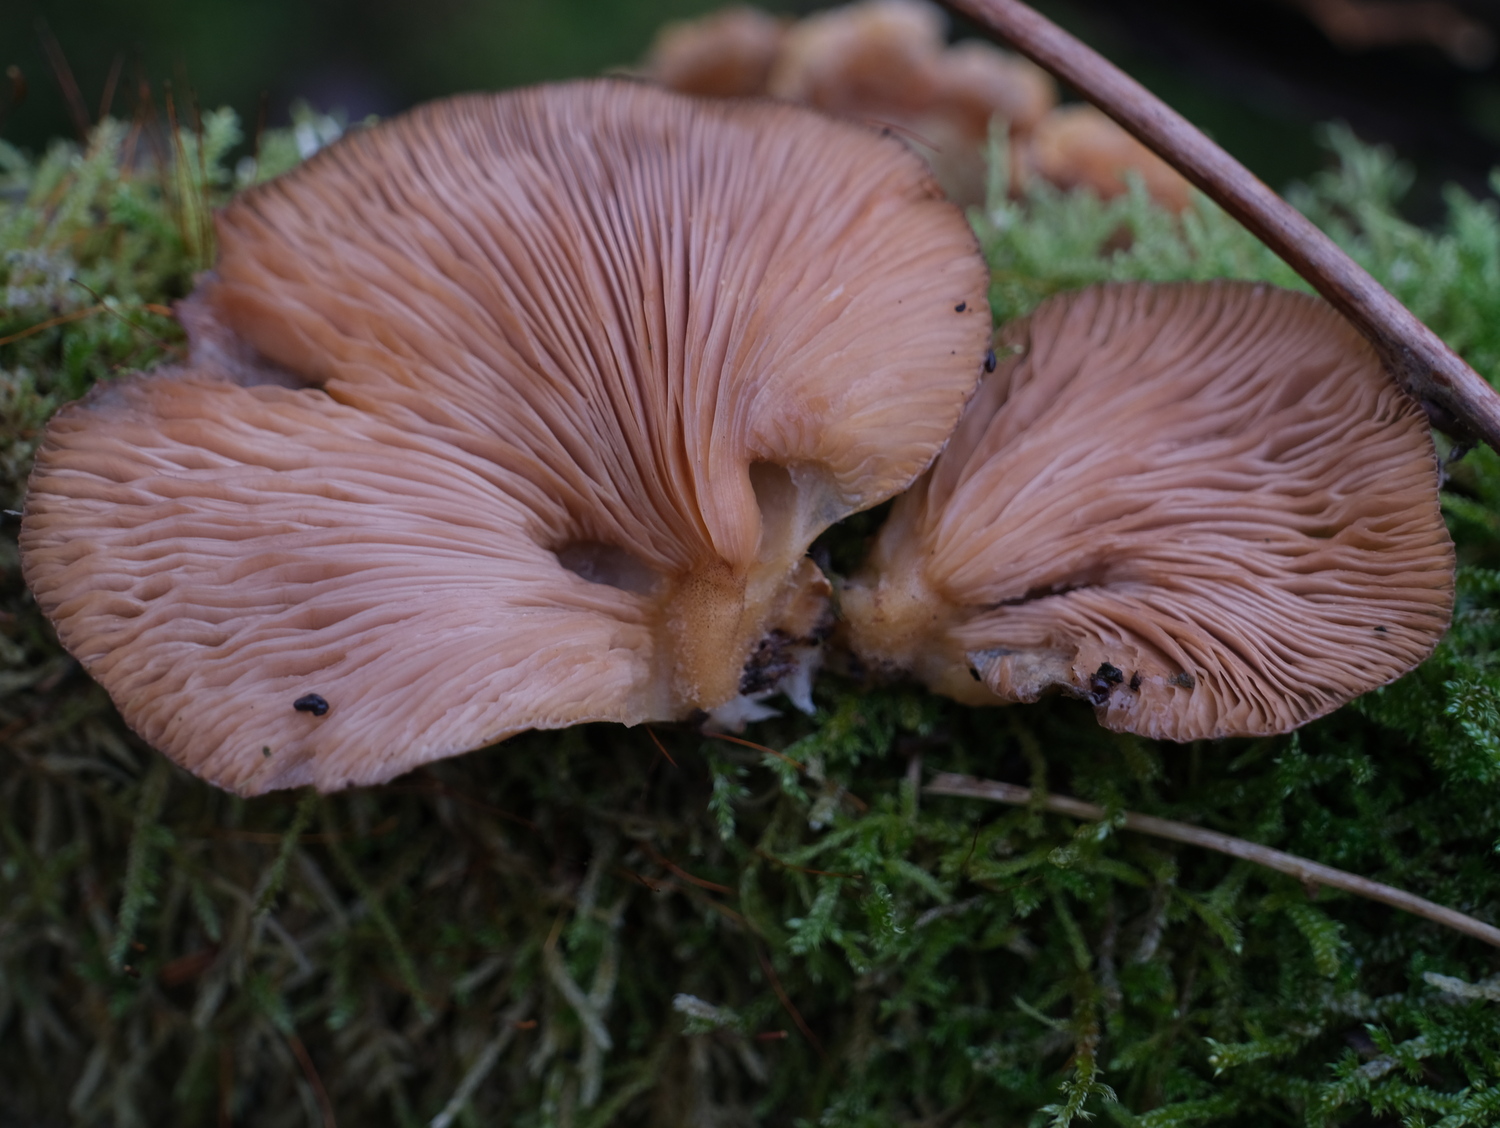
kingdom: Fungi
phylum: Basidiomycota
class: Agaricomycetes
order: Agaricales
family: Sarcomyxaceae
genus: Sarcomyxa
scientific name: Sarcomyxa serotina
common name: gummihat
